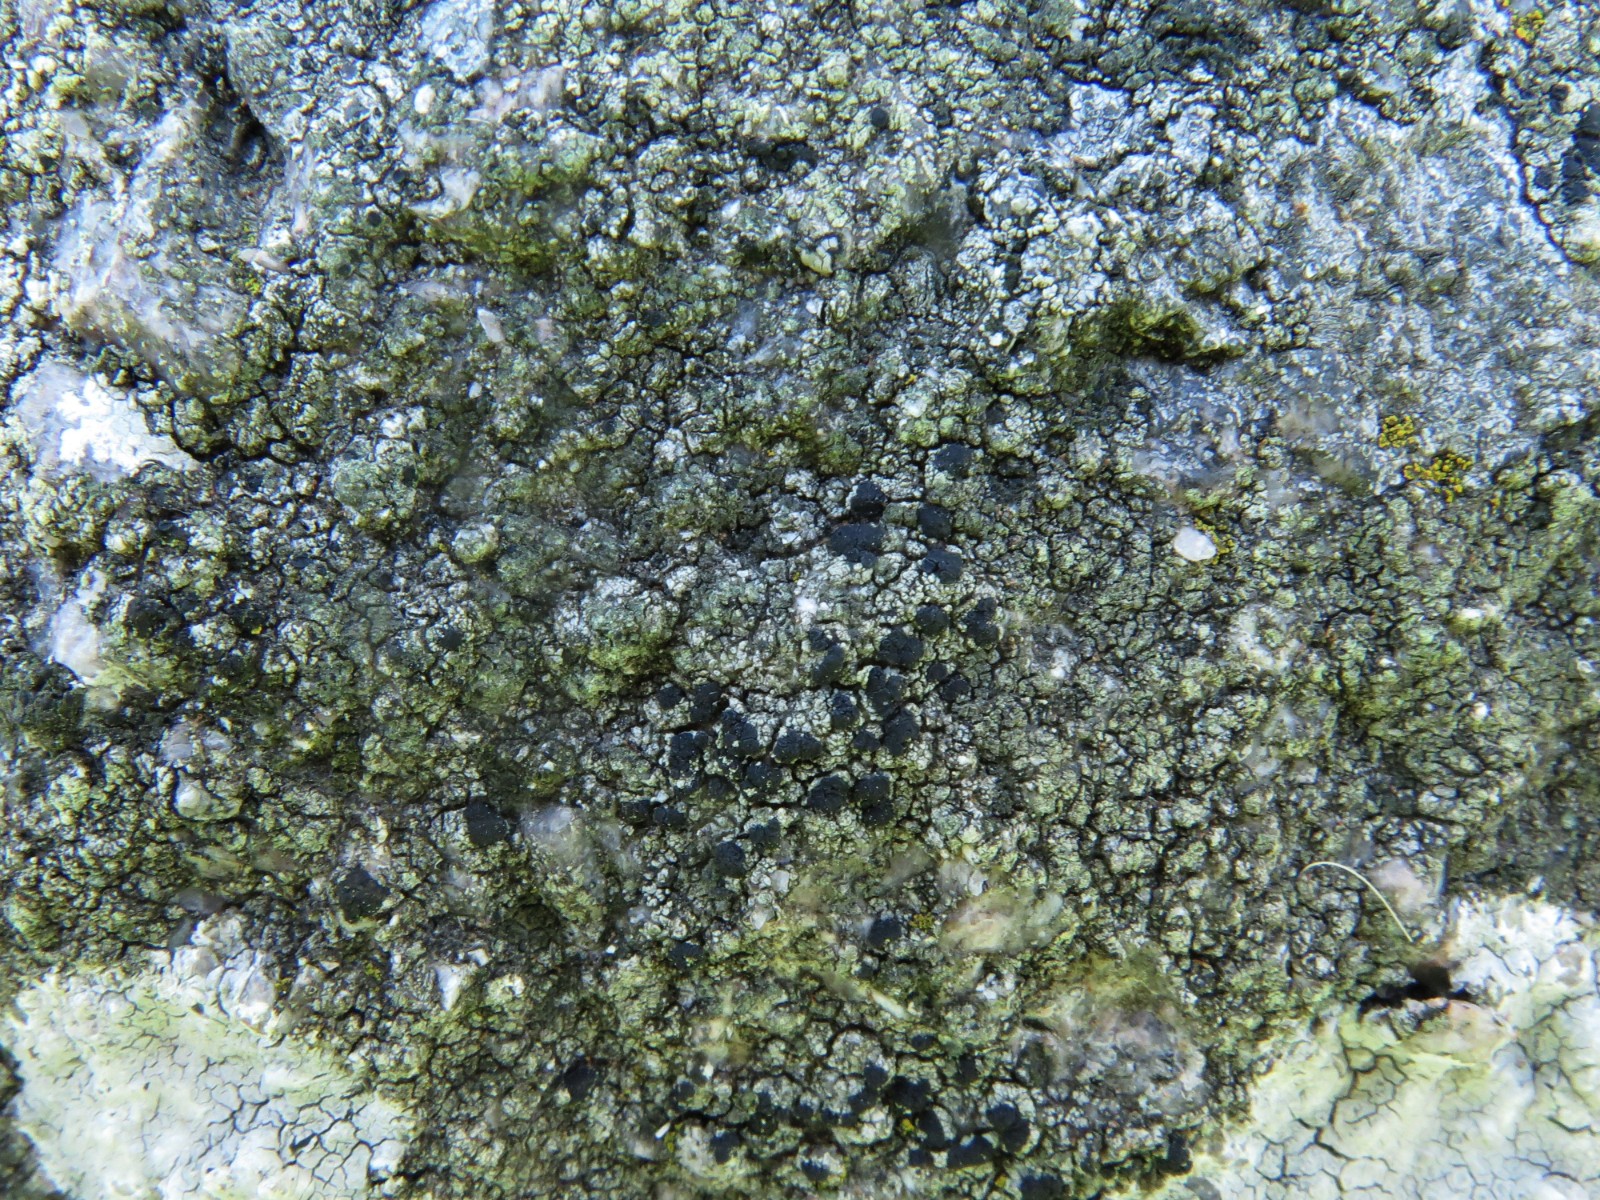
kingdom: Fungi
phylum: Ascomycota
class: Lecanoromycetes
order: Lecanorales
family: Lecanoraceae
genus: Lecidella
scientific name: Lecidella scabra
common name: skurvet skivelav
